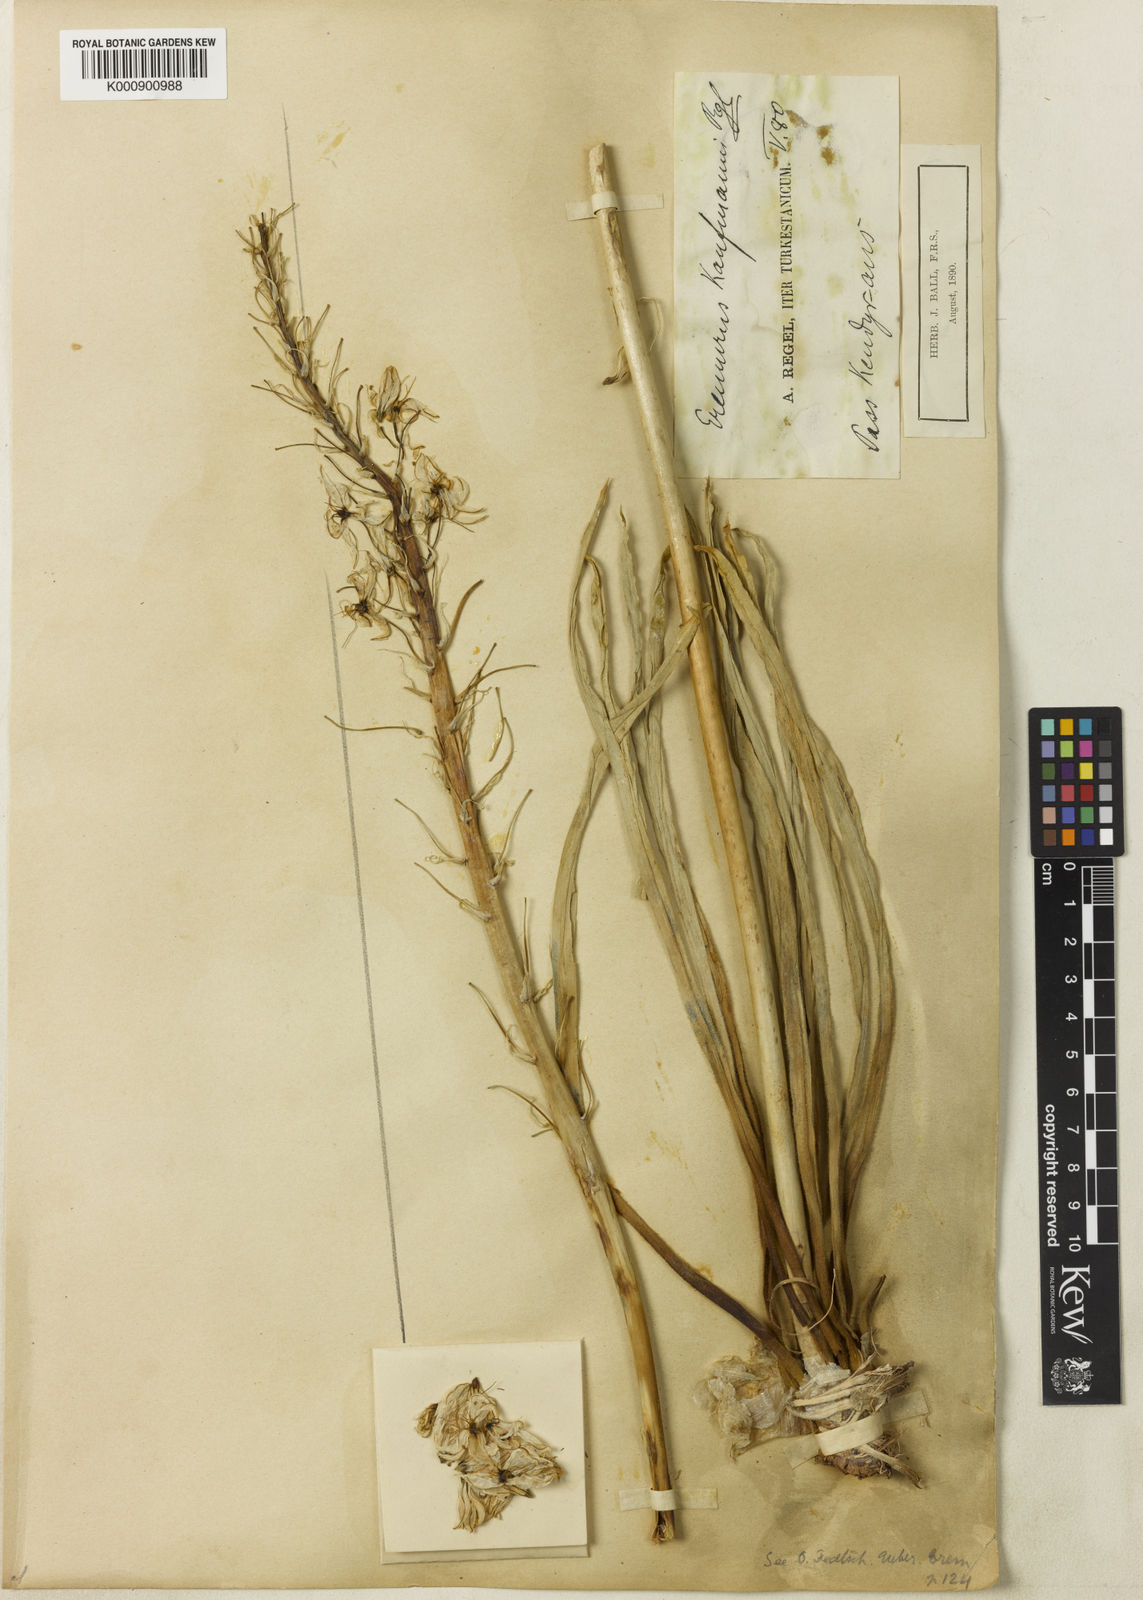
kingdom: Plantae
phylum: Tracheophyta
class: Liliopsida
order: Asparagales
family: Asphodelaceae
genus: Eremurus
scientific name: Eremurus kaufmannii
